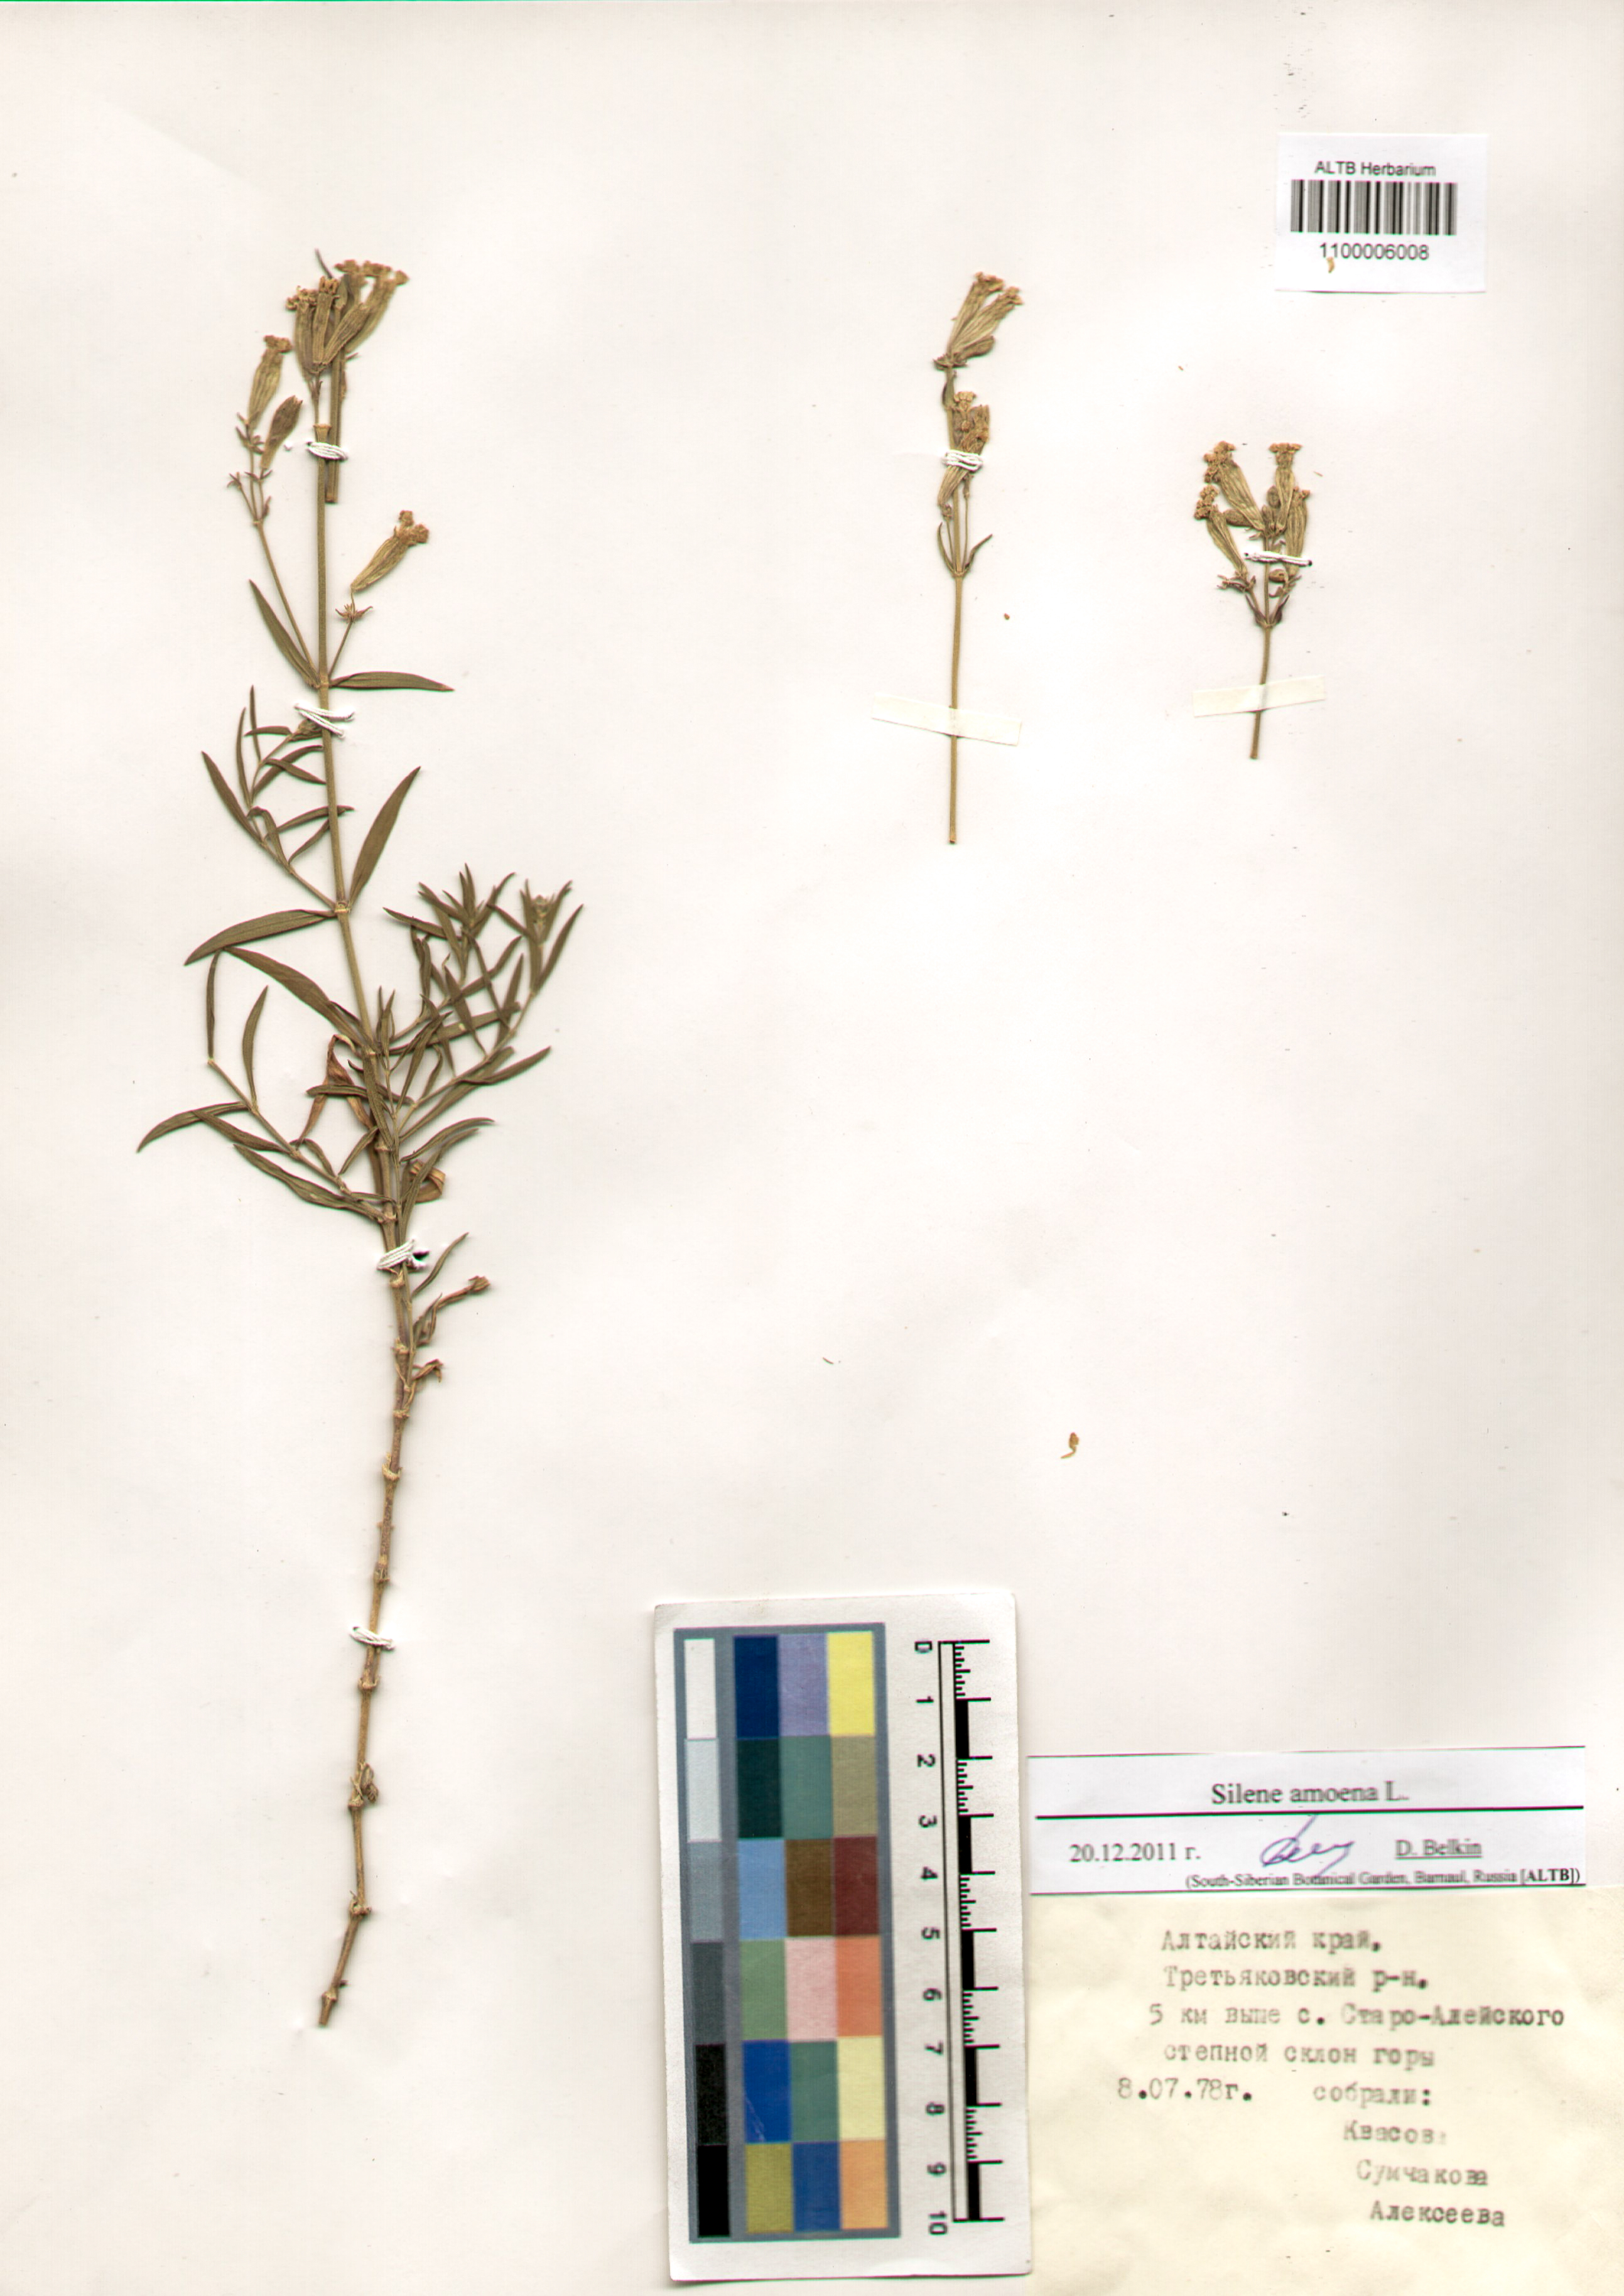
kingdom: Plantae
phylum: Tracheophyta
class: Magnoliopsida
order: Caryophyllales
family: Caryophyllaceae
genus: Silene
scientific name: Silene amoena
